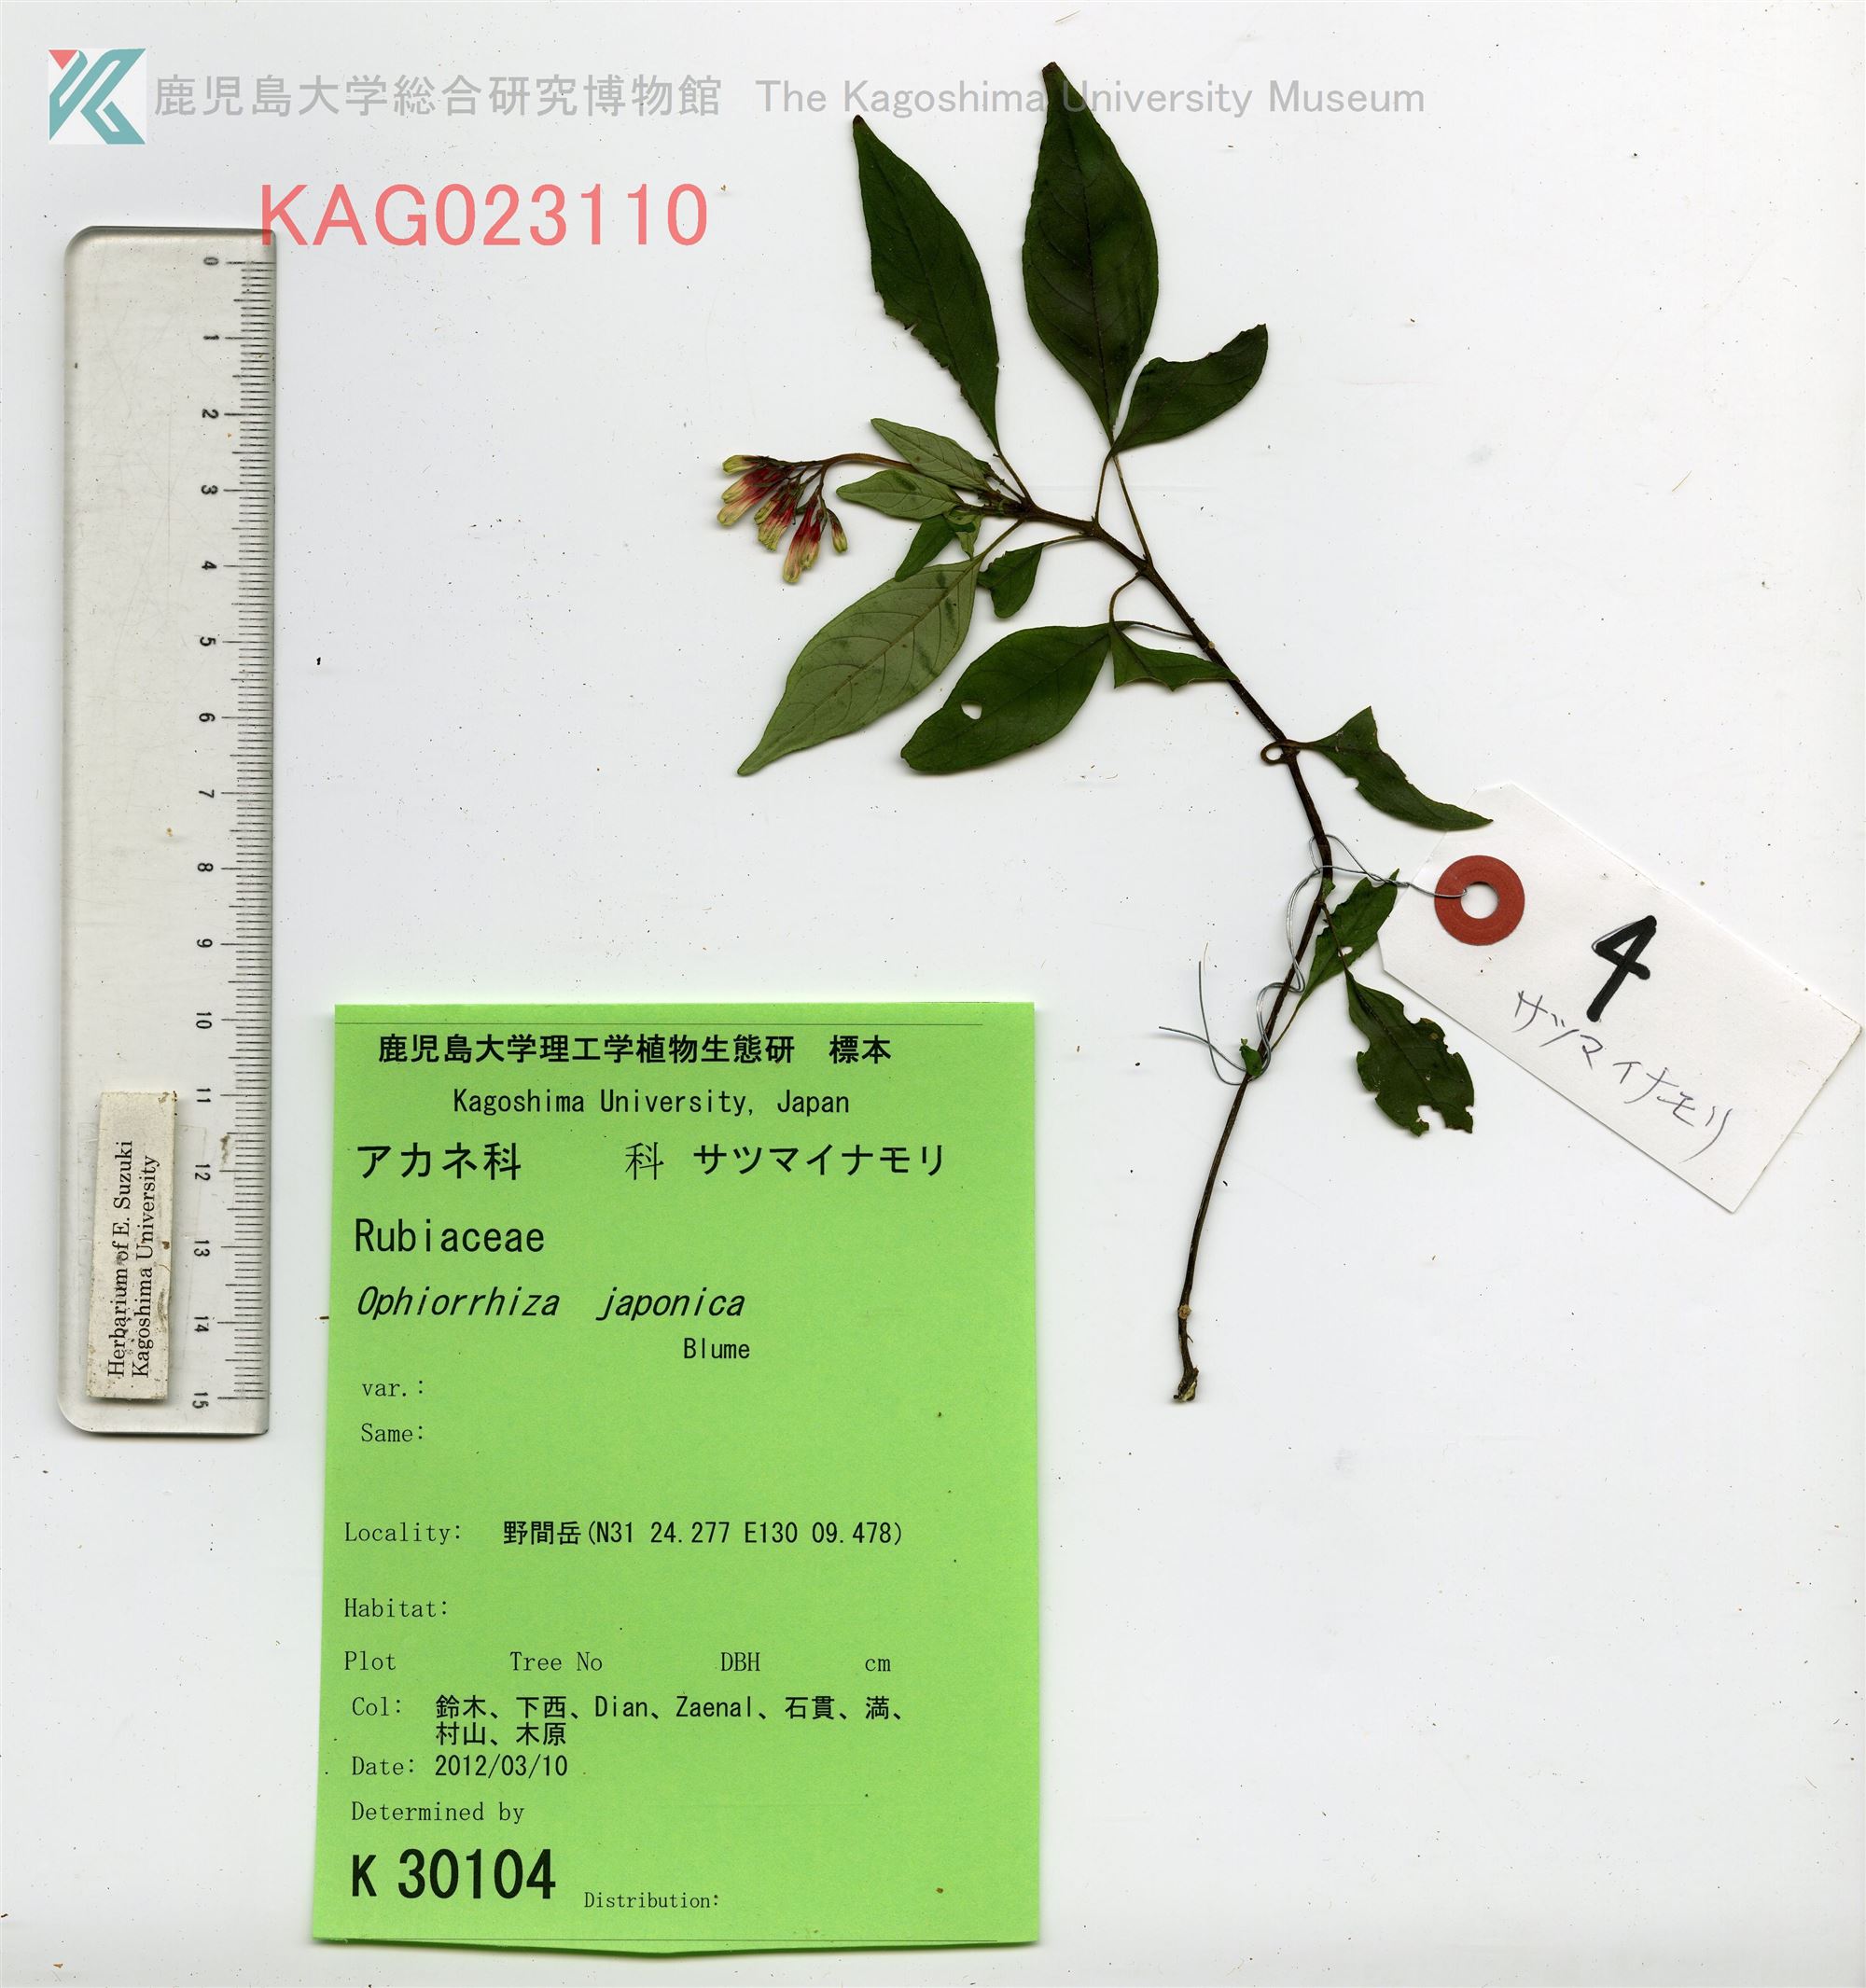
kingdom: Plantae
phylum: Tracheophyta
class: Magnoliopsida
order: Gentianales
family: Rubiaceae
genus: Ophiorrhiza
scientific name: Ophiorrhiza japonica
